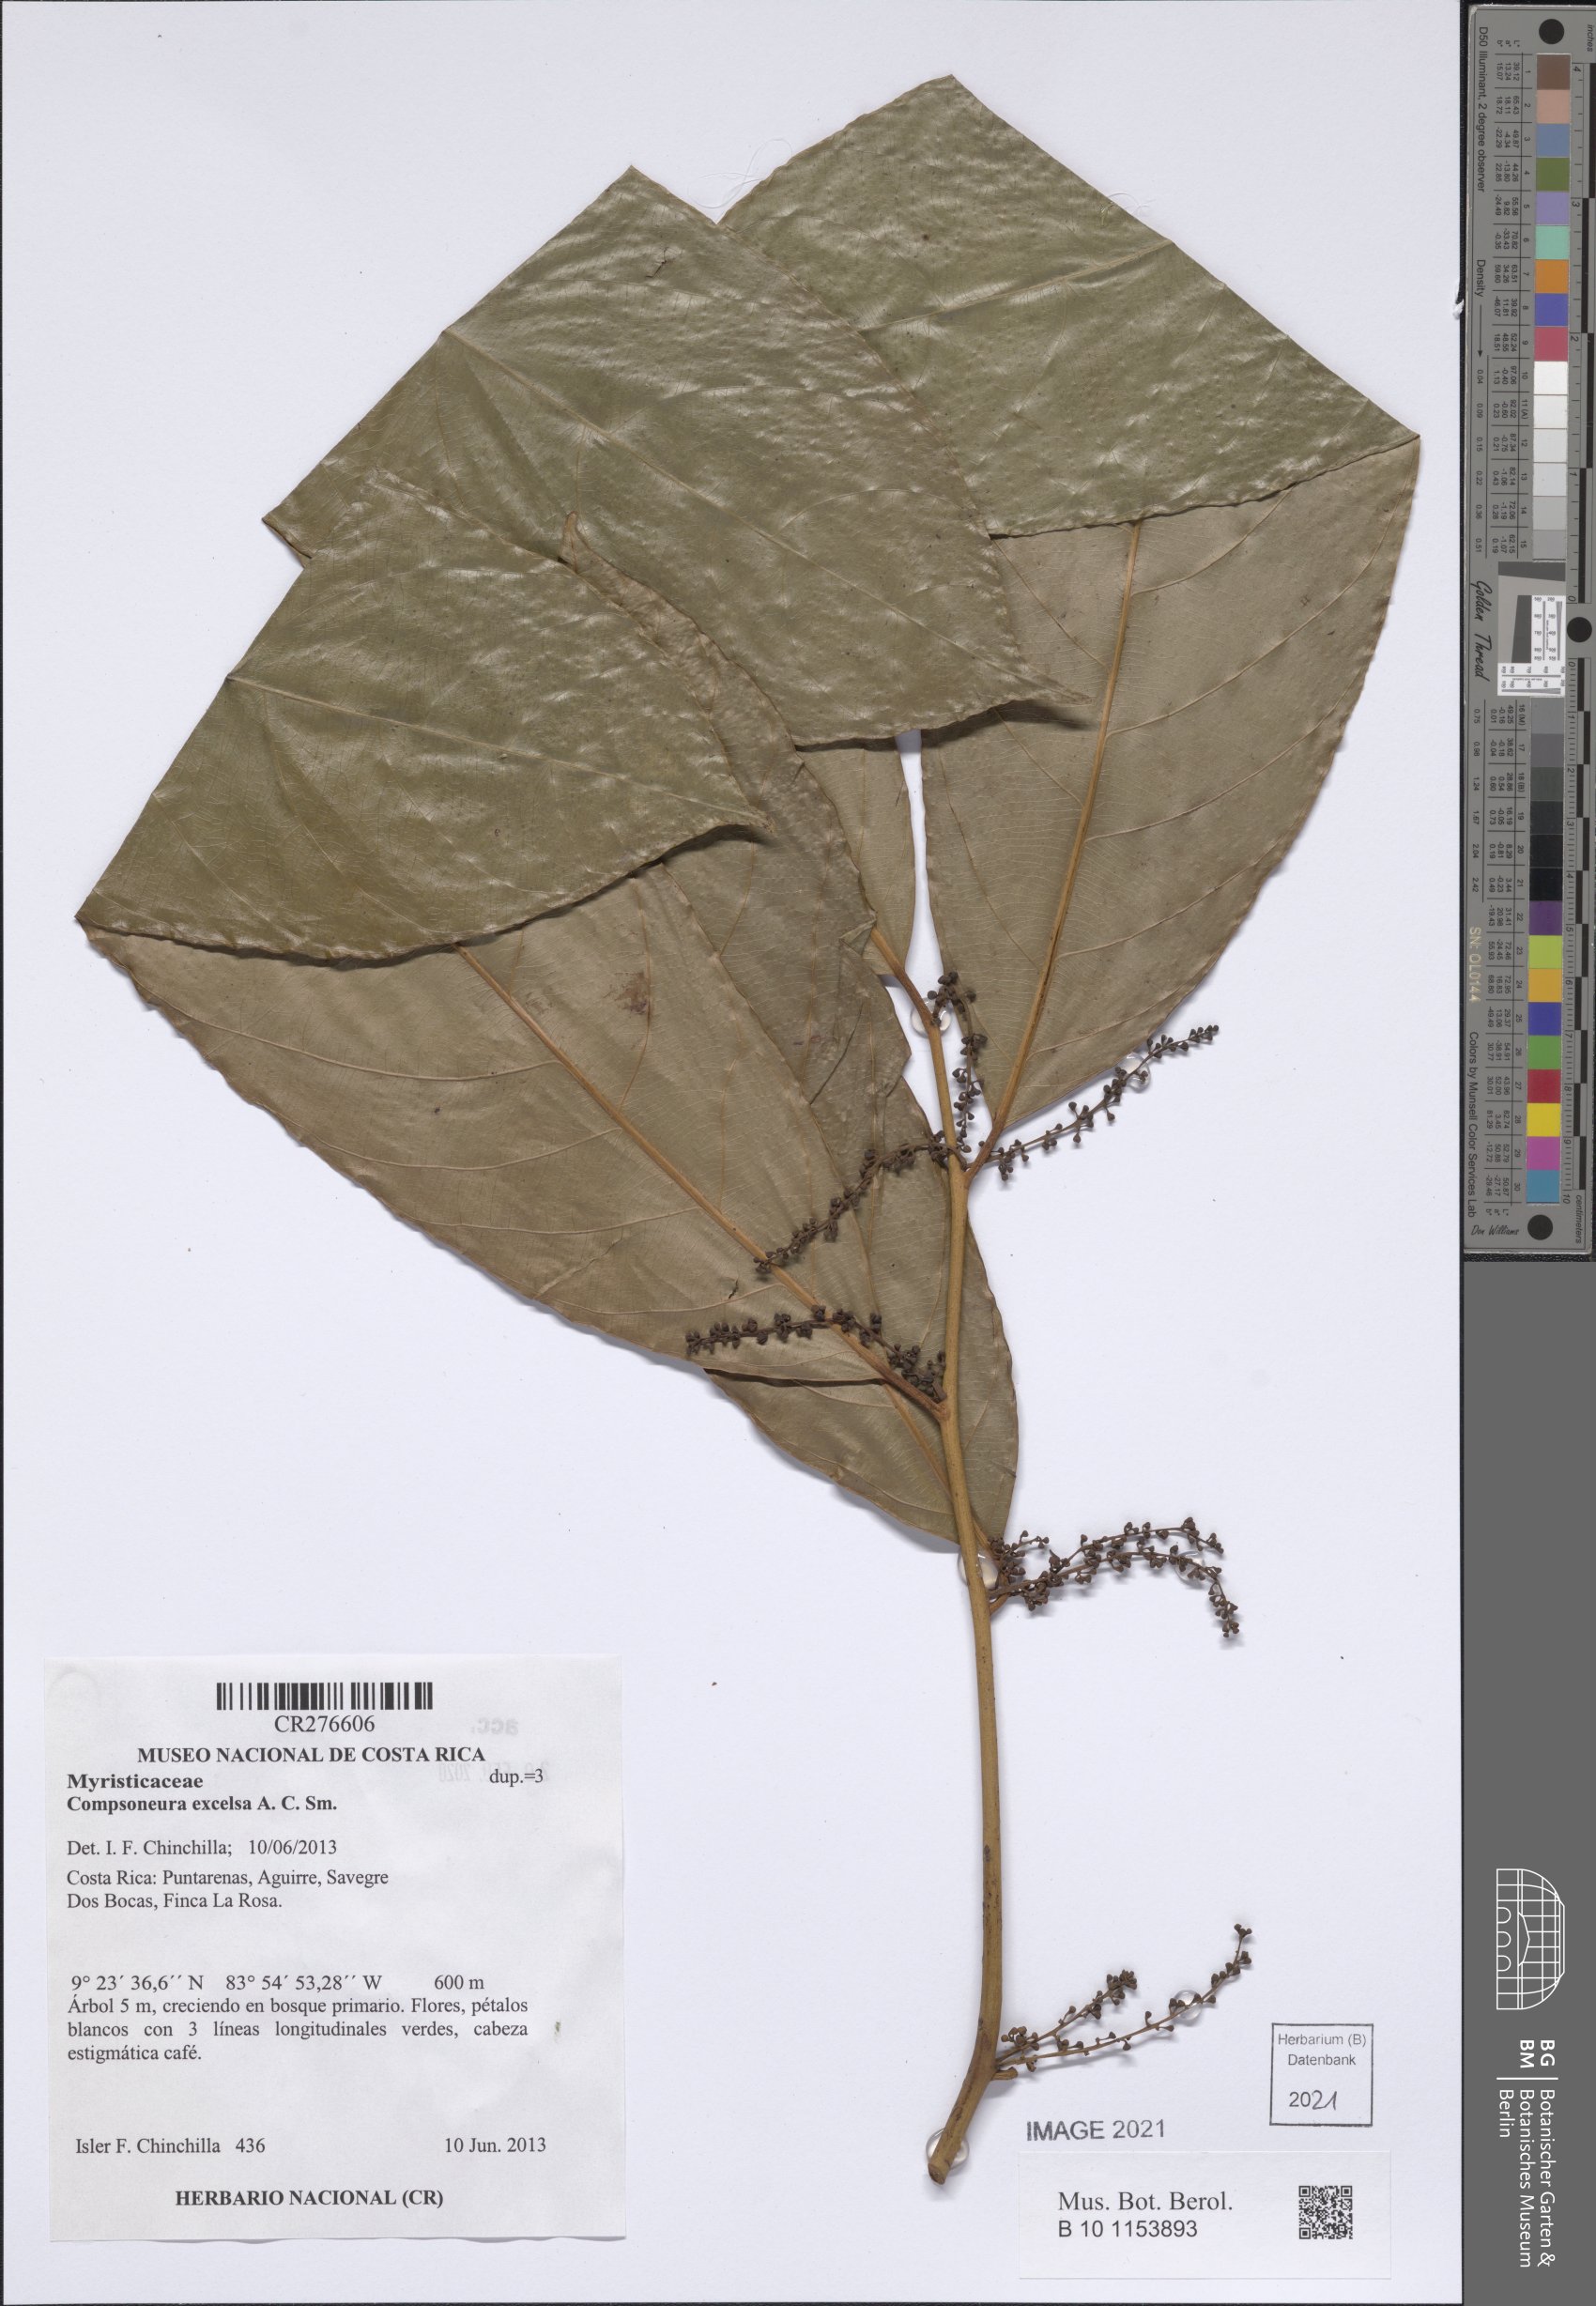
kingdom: Plantae
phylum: Tracheophyta
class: Magnoliopsida
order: Magnoliales
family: Myristicaceae
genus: Compsoneura
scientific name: Compsoneura excelsa
